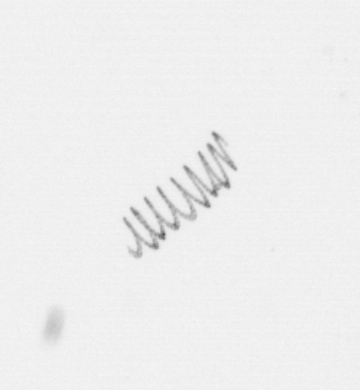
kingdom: Chromista
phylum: Ochrophyta
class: Bacillariophyceae
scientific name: Bacillariophyceae
